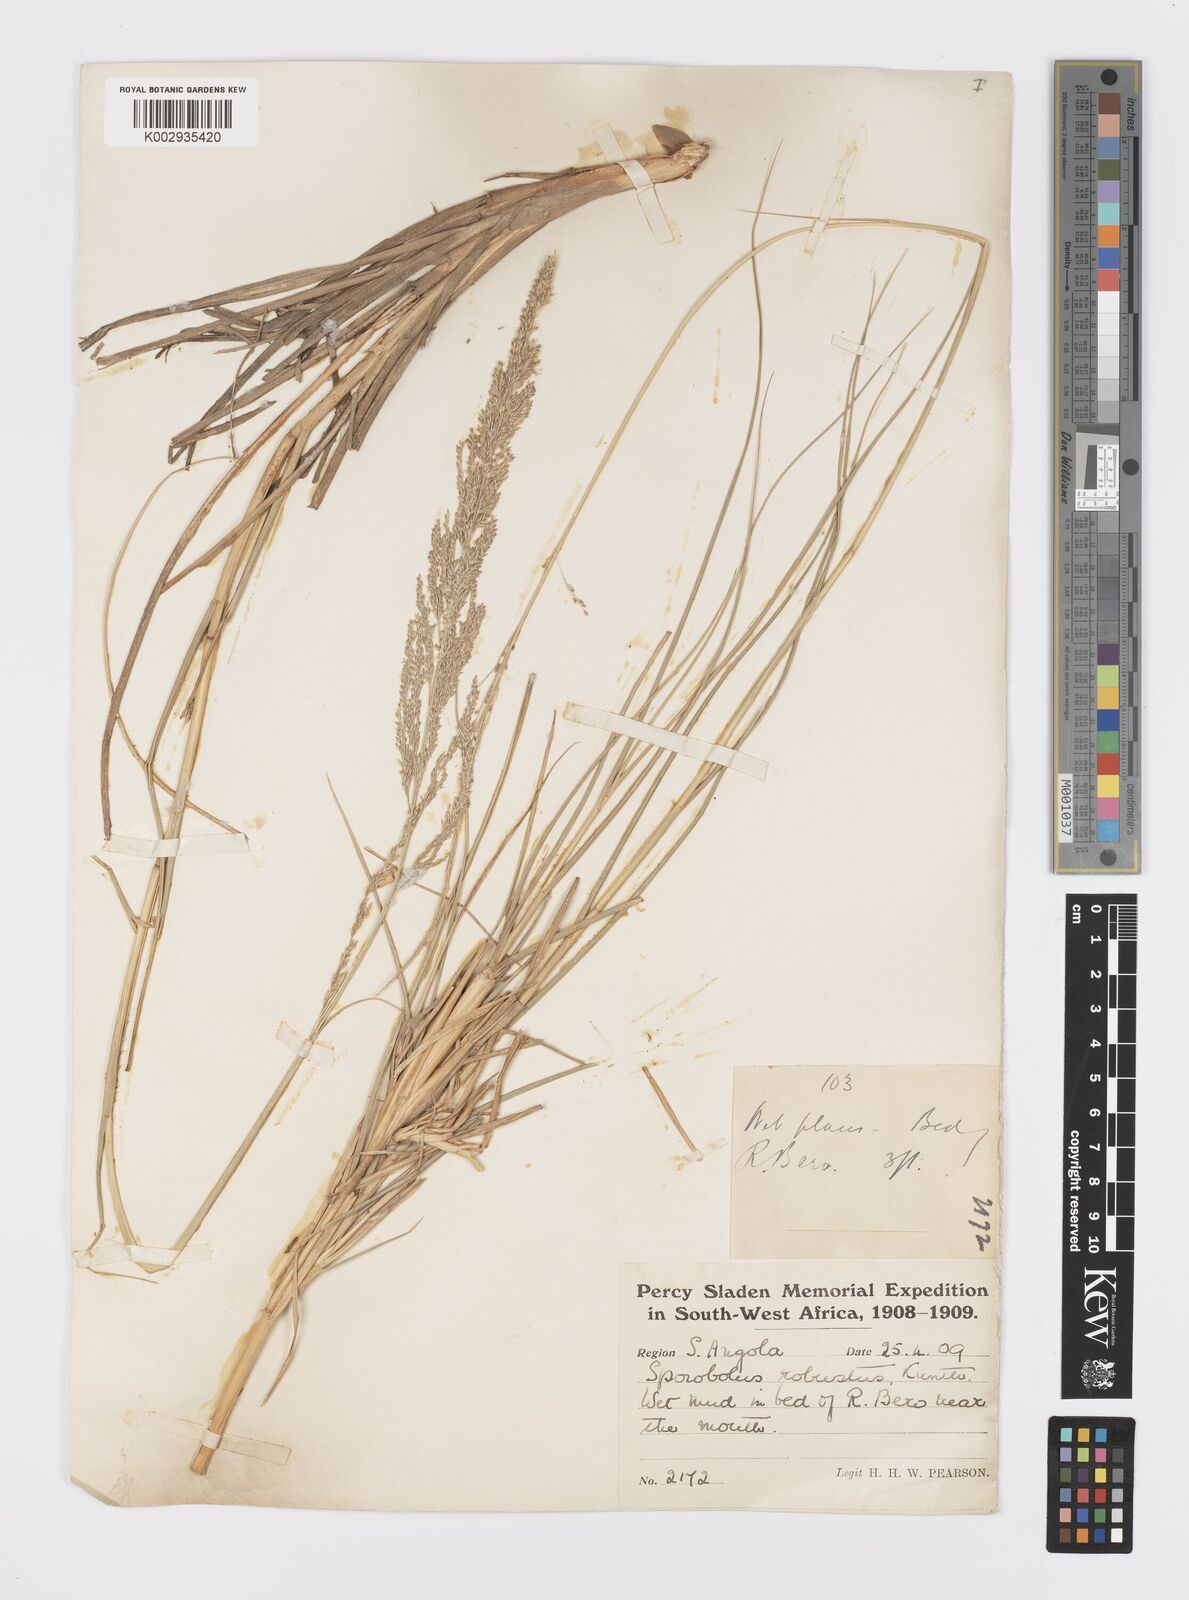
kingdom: Plantae
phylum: Tracheophyta
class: Liliopsida
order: Poales
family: Poaceae
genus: Sporobolus
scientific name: Sporobolus robustus
